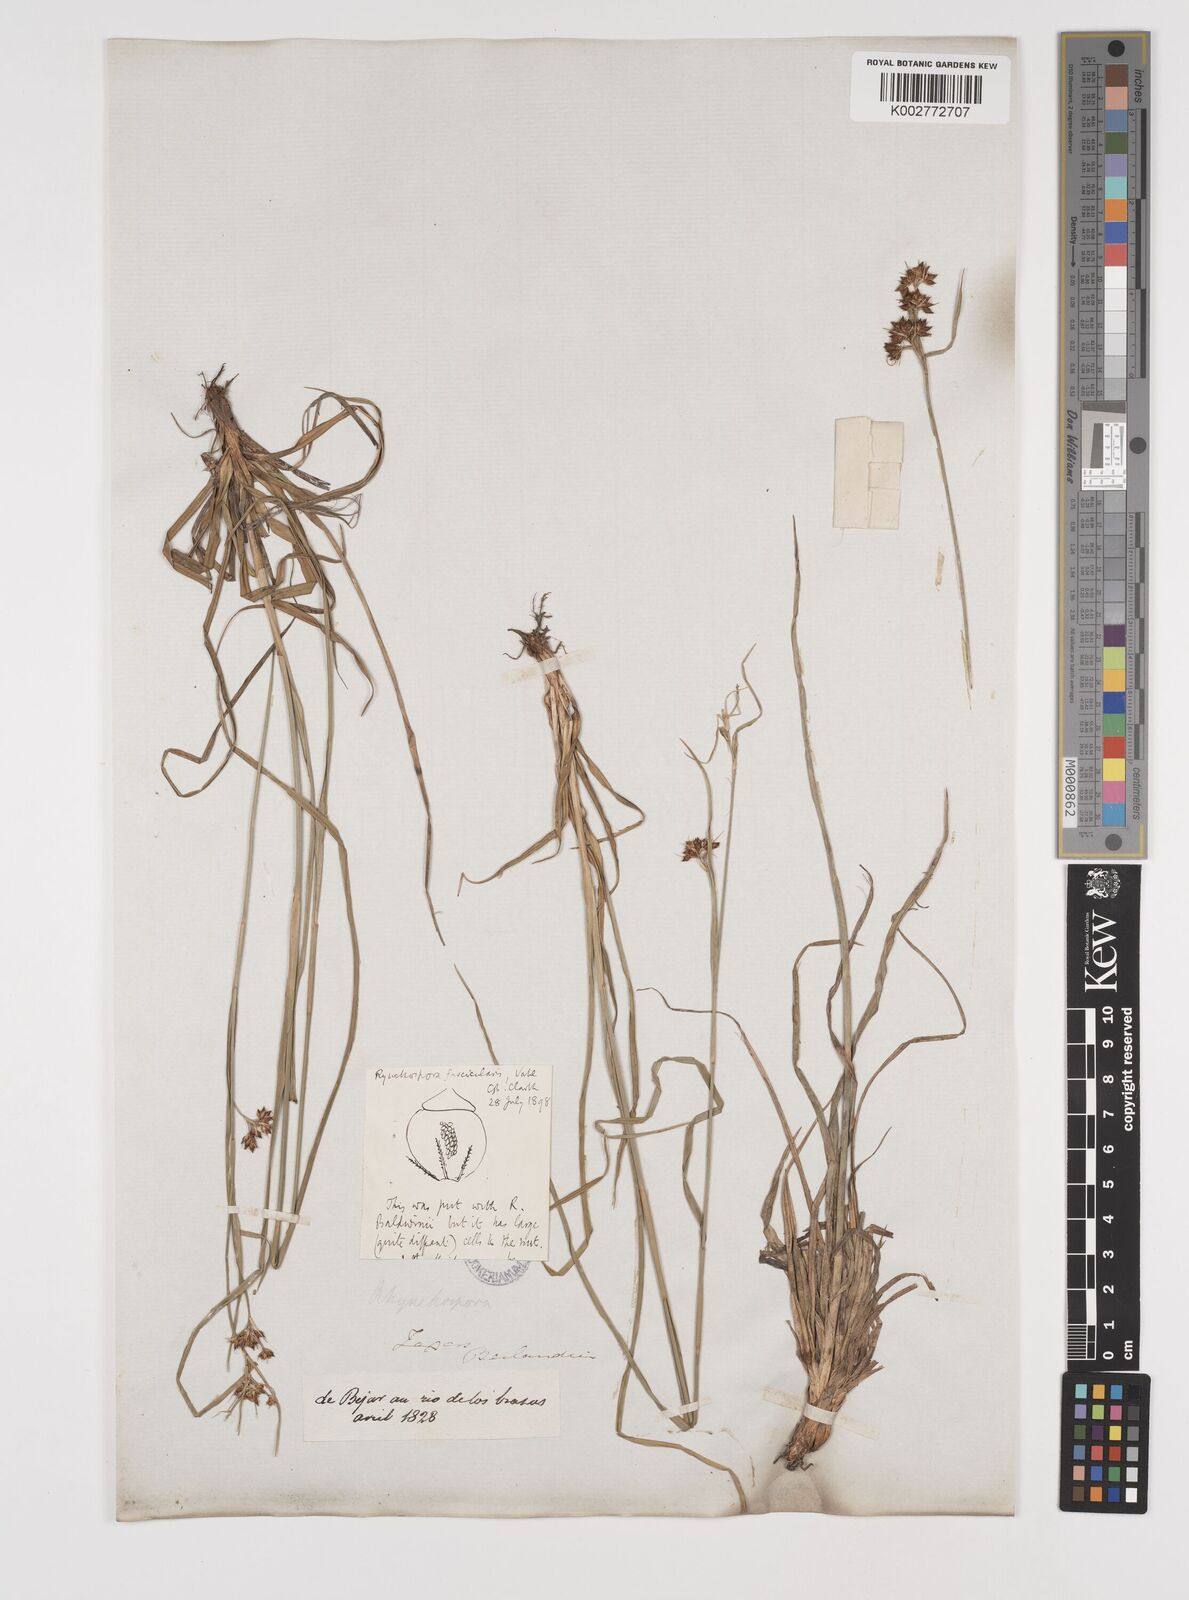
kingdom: Plantae
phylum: Tracheophyta
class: Liliopsida
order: Poales
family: Cyperaceae
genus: Rhynchospora
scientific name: Rhynchospora fascicularis
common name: Fascicled beak sedge
